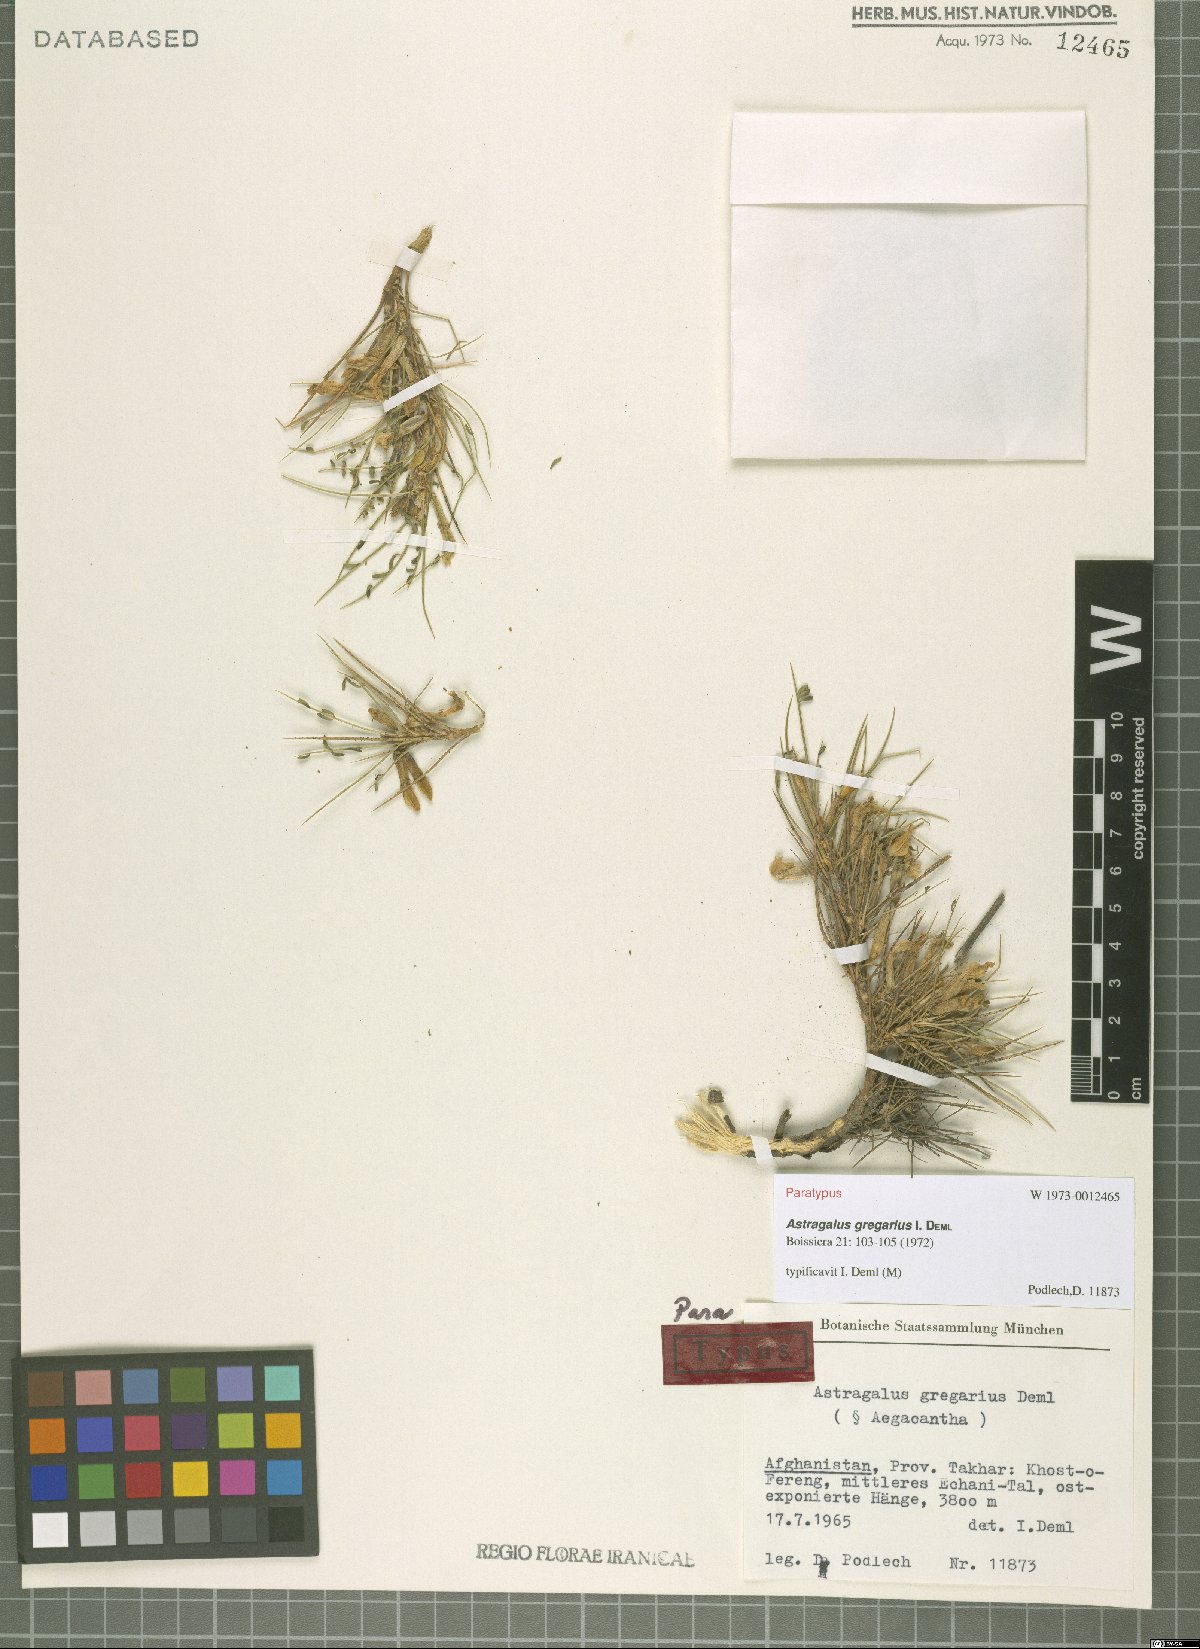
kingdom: Plantae
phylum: Tracheophyta
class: Magnoliopsida
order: Fabales
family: Fabaceae
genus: Astragalus
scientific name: Astragalus gregarius
